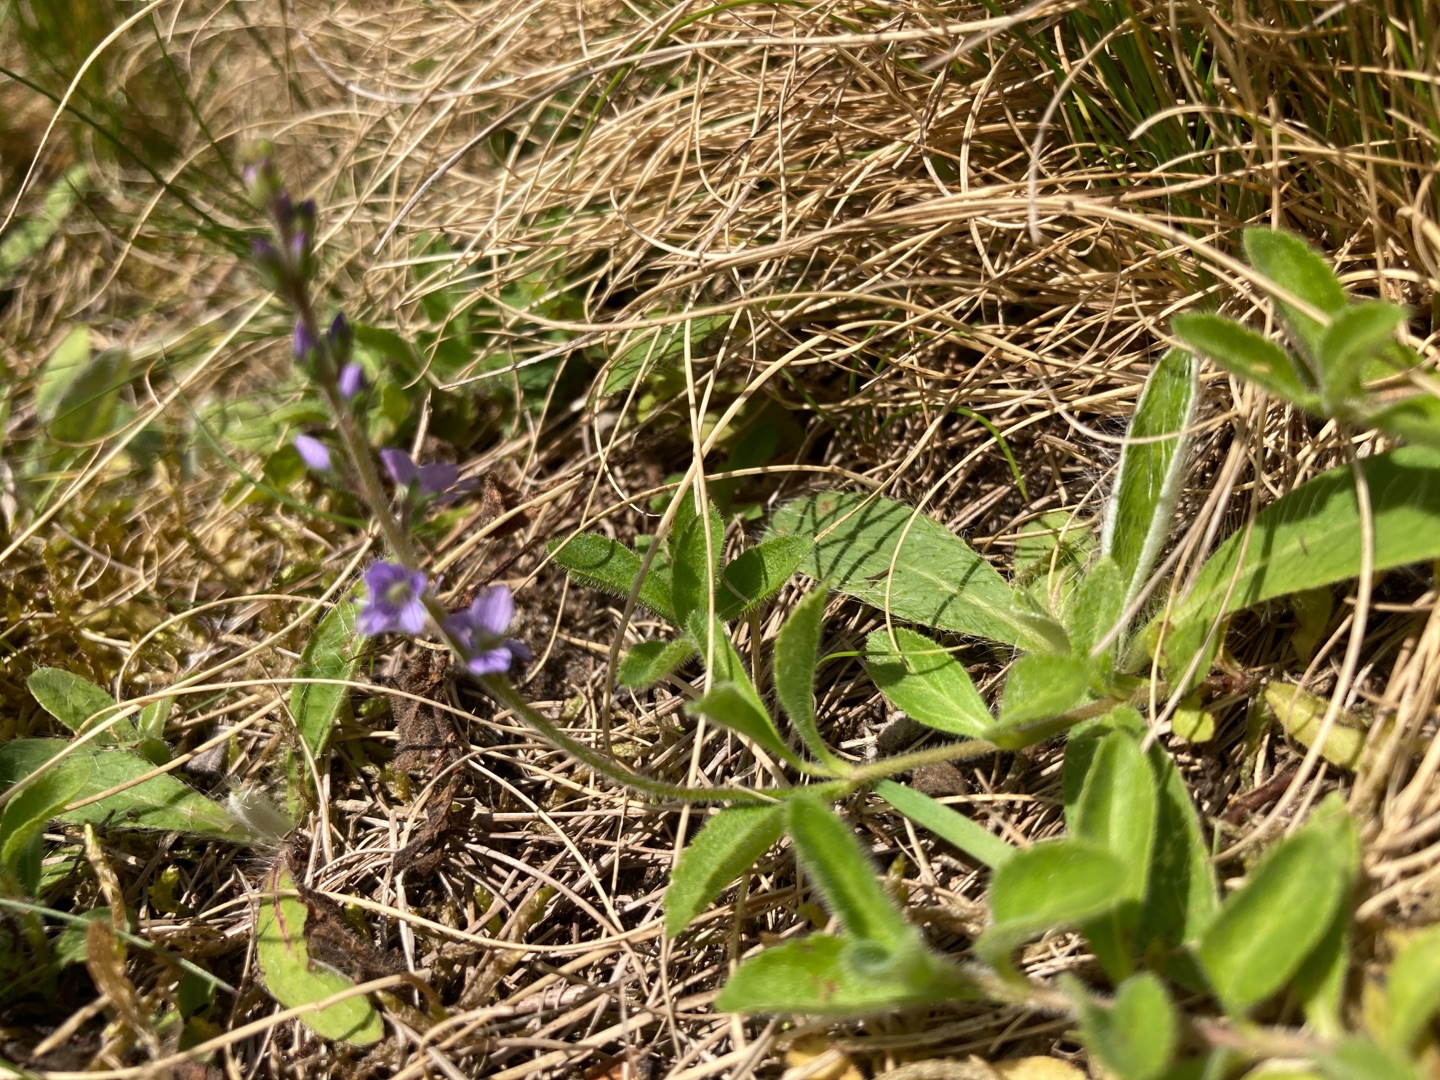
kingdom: Plantae
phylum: Tracheophyta
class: Magnoliopsida
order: Lamiales
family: Plantaginaceae
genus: Veronica
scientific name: Veronica officinalis
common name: Læge-ærenpris
